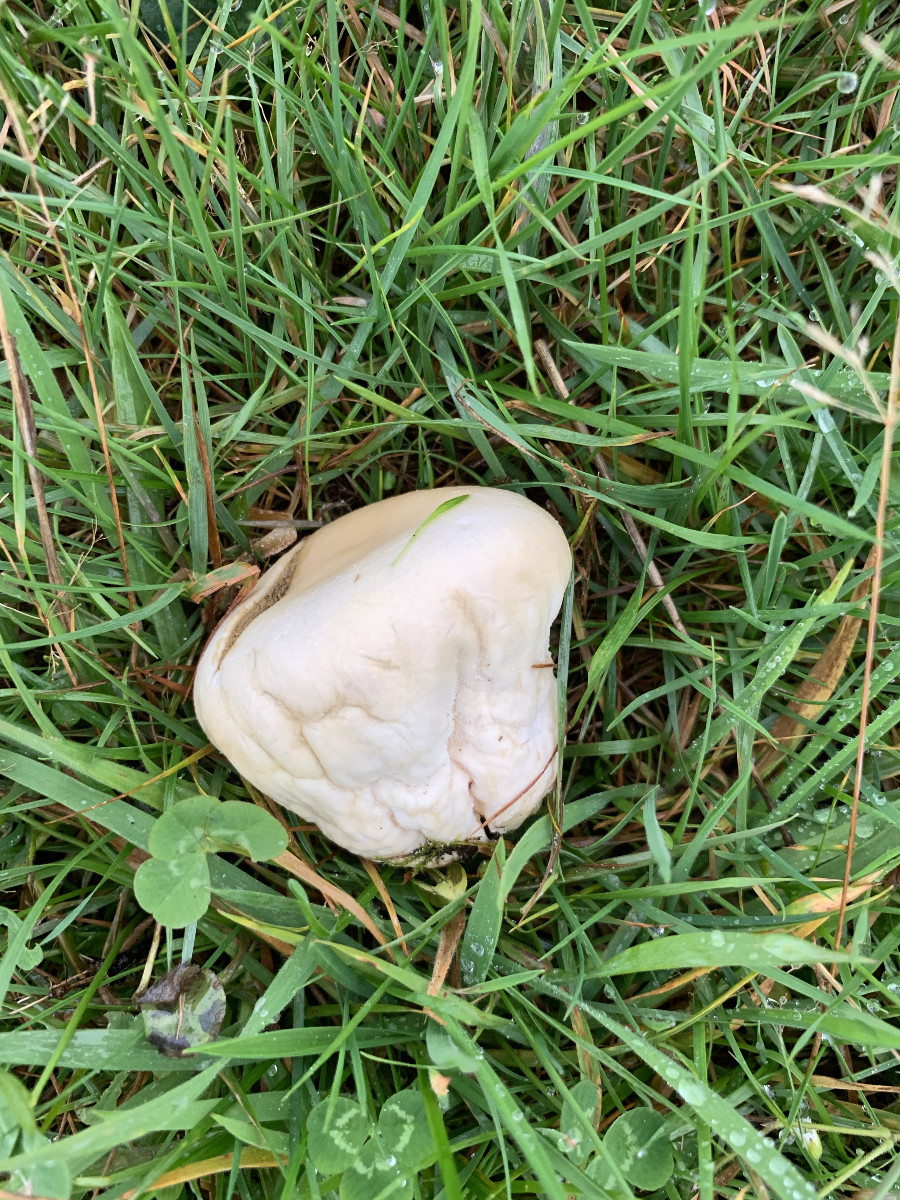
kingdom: Fungi
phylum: Basidiomycota
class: Agaricomycetes
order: Agaricales
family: Lycoperdaceae
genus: Lycoperdon
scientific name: Lycoperdon pratense
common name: flad støvbold
